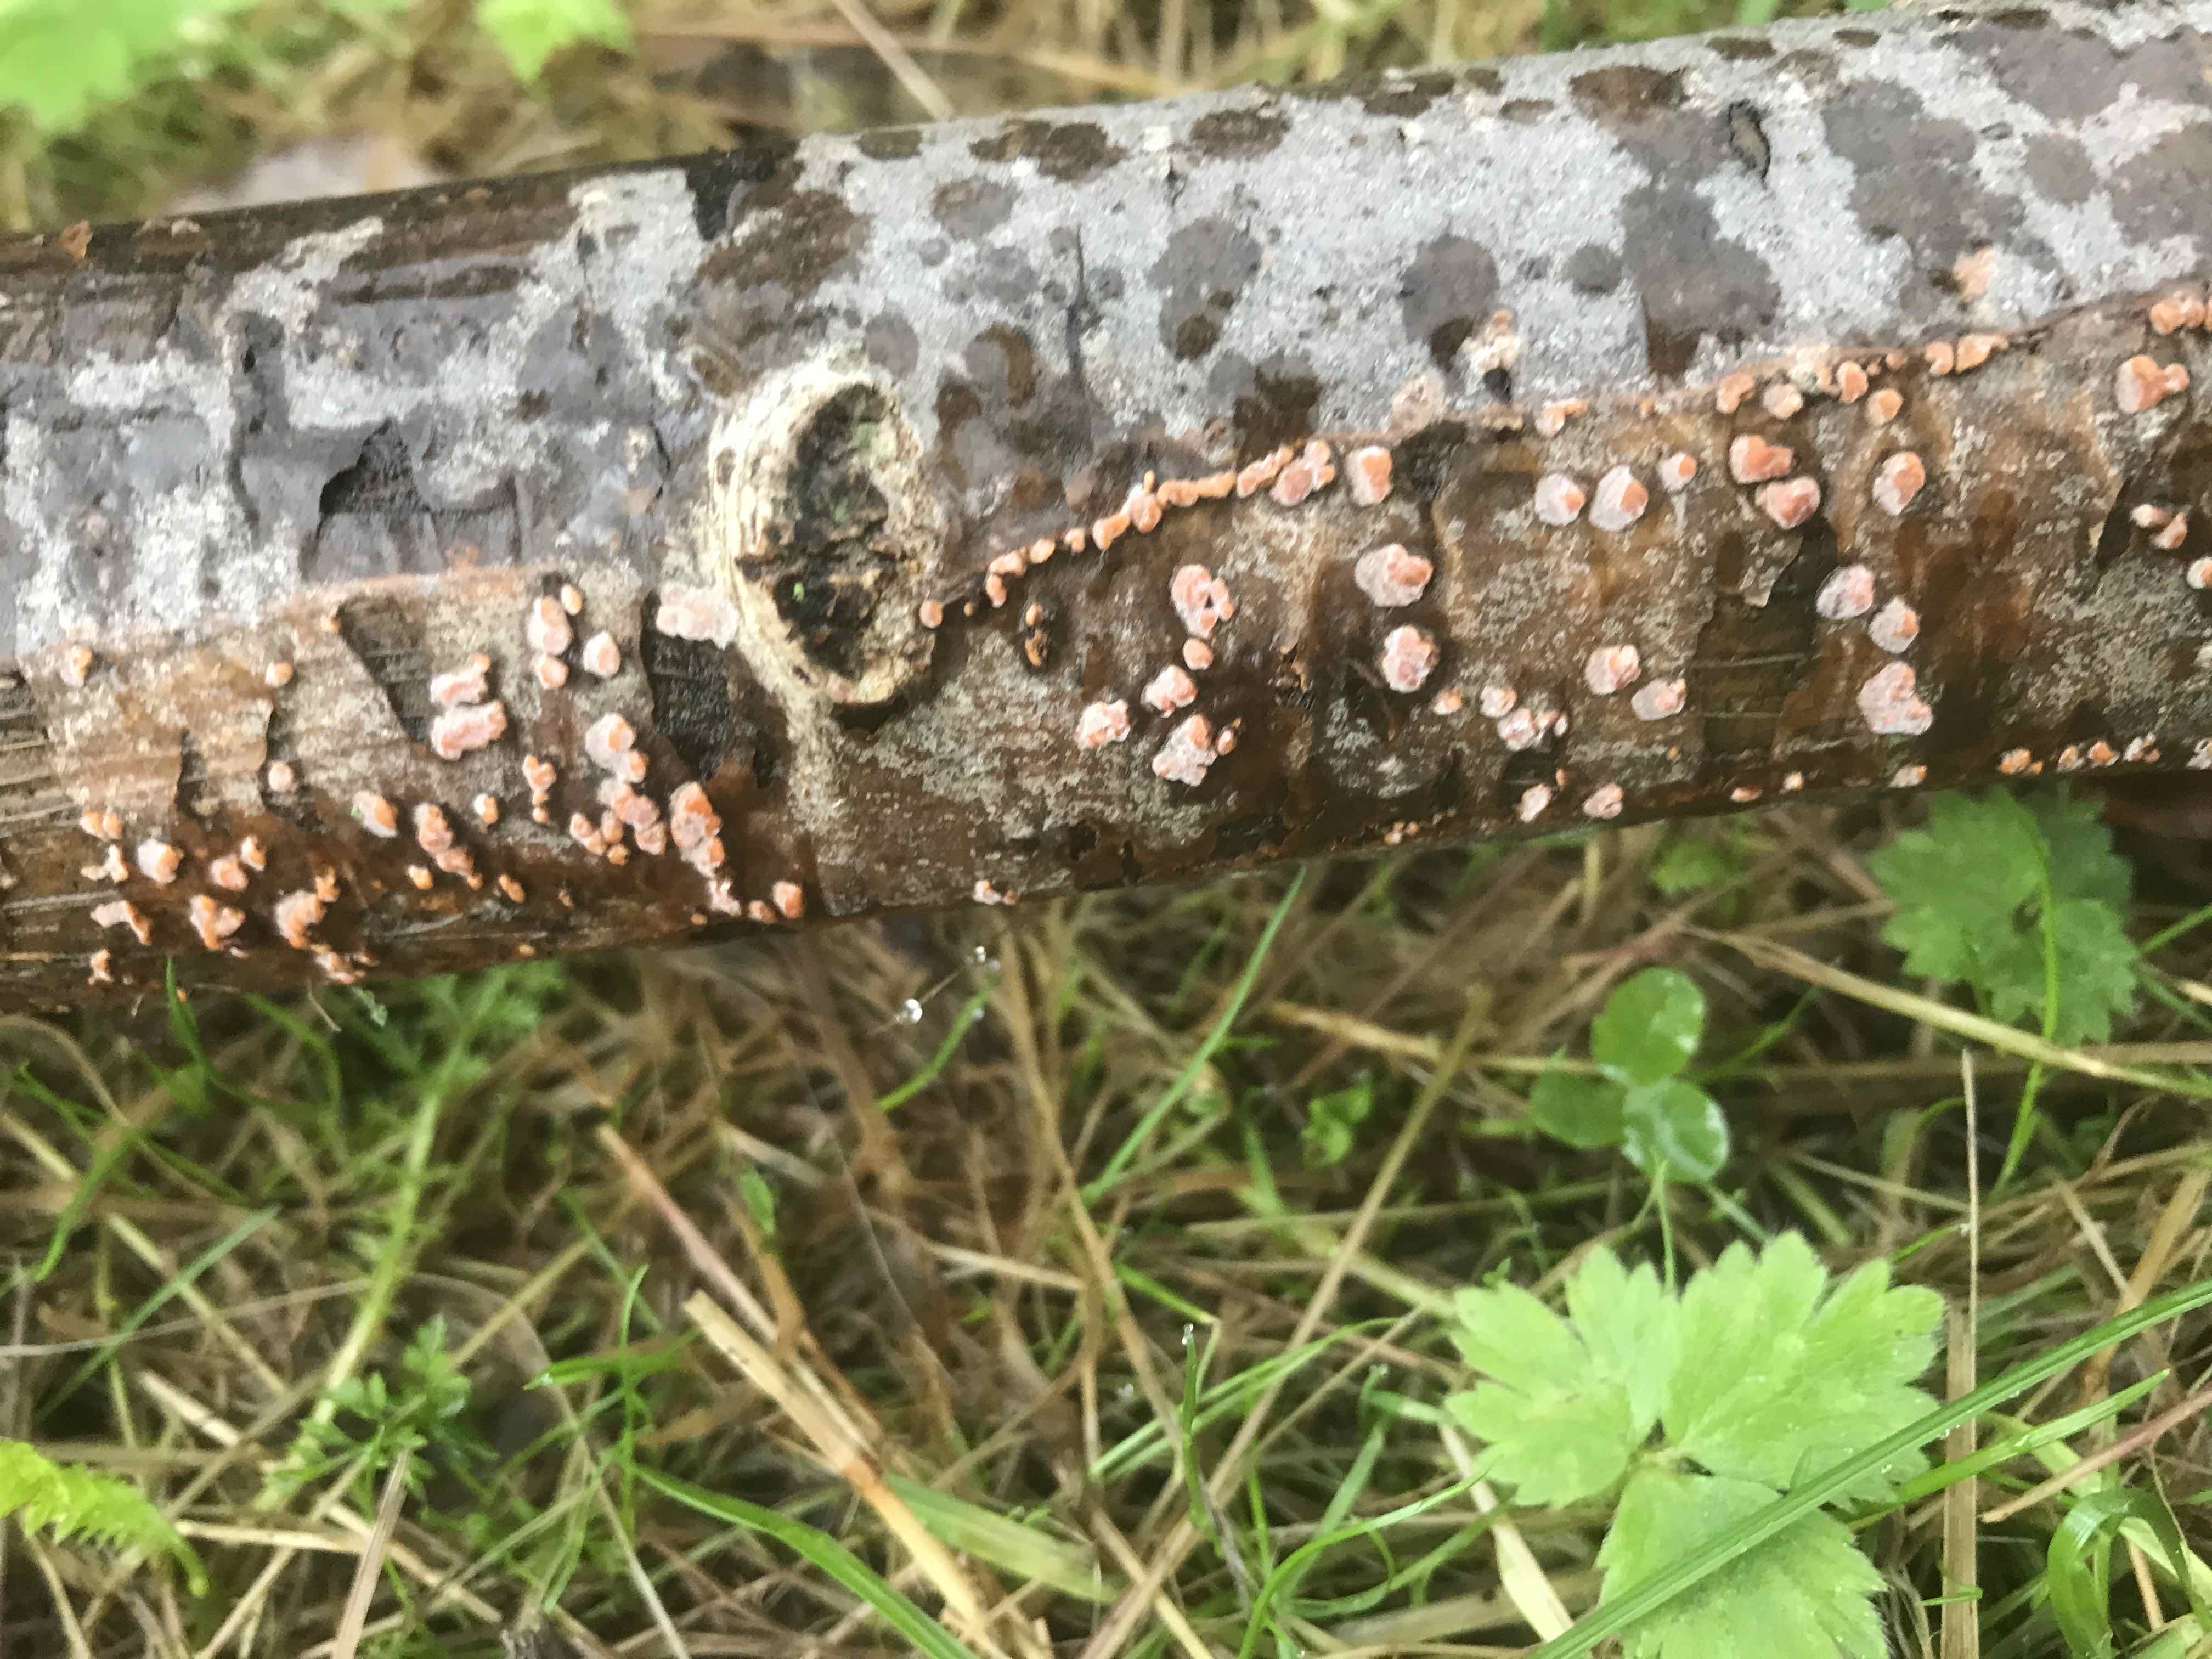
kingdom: Fungi
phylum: Basidiomycota
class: Agaricomycetes
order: Russulales
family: Peniophoraceae
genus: Peniophora
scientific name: Peniophora polygonia
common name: polygon-voksskind
